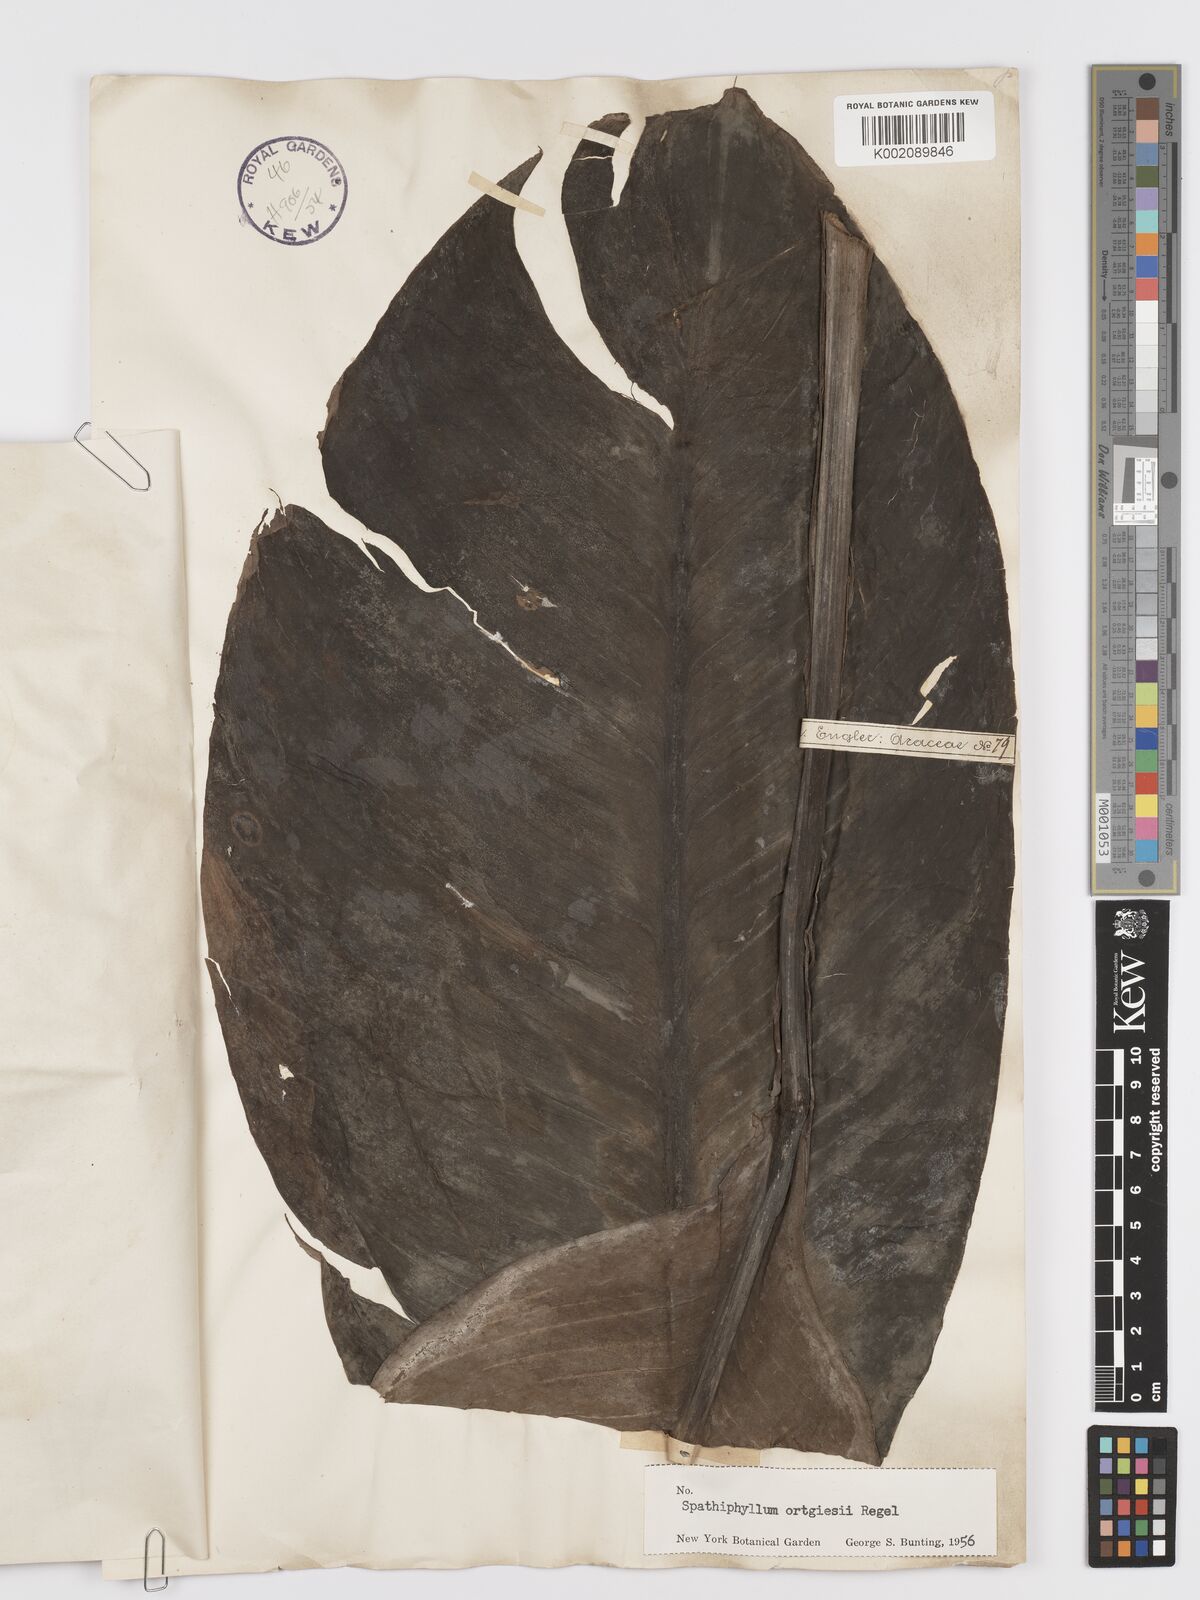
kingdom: Plantae
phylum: Tracheophyta
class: Liliopsida
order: Alismatales
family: Araceae
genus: Spathiphyllum
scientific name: Spathiphyllum ortgiesii
